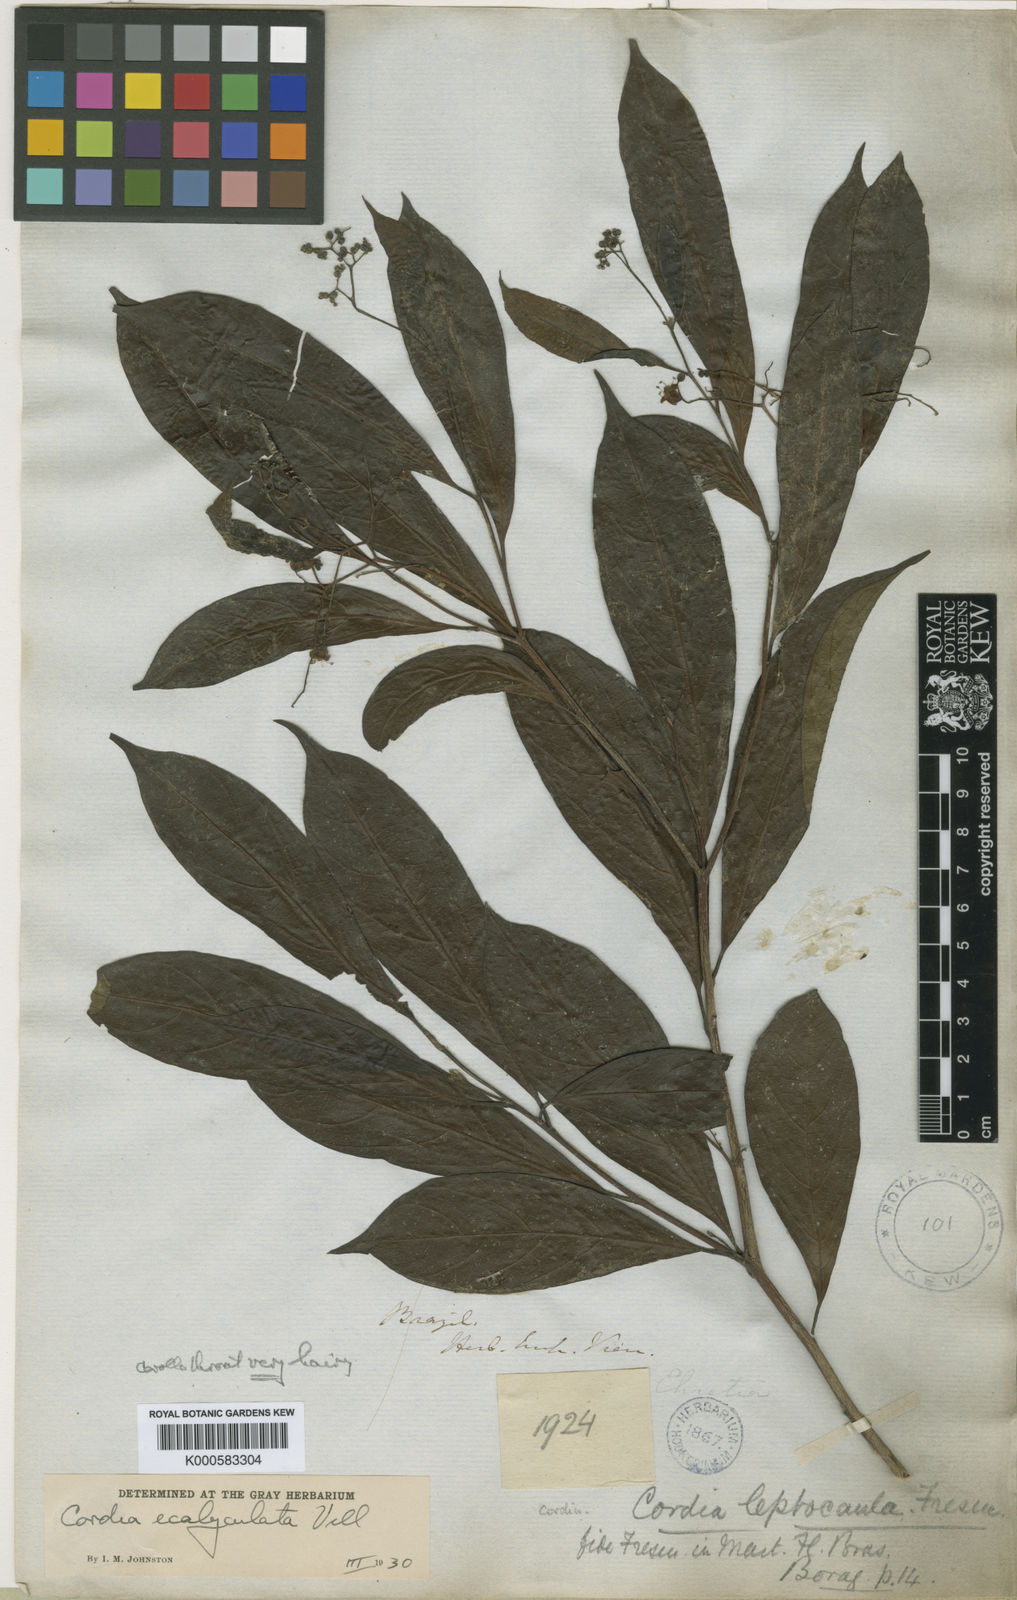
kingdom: Plantae
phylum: Tracheophyta
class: Magnoliopsida
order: Boraginales
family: Cordiaceae
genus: Cordia
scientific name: Cordia ecalyculata
